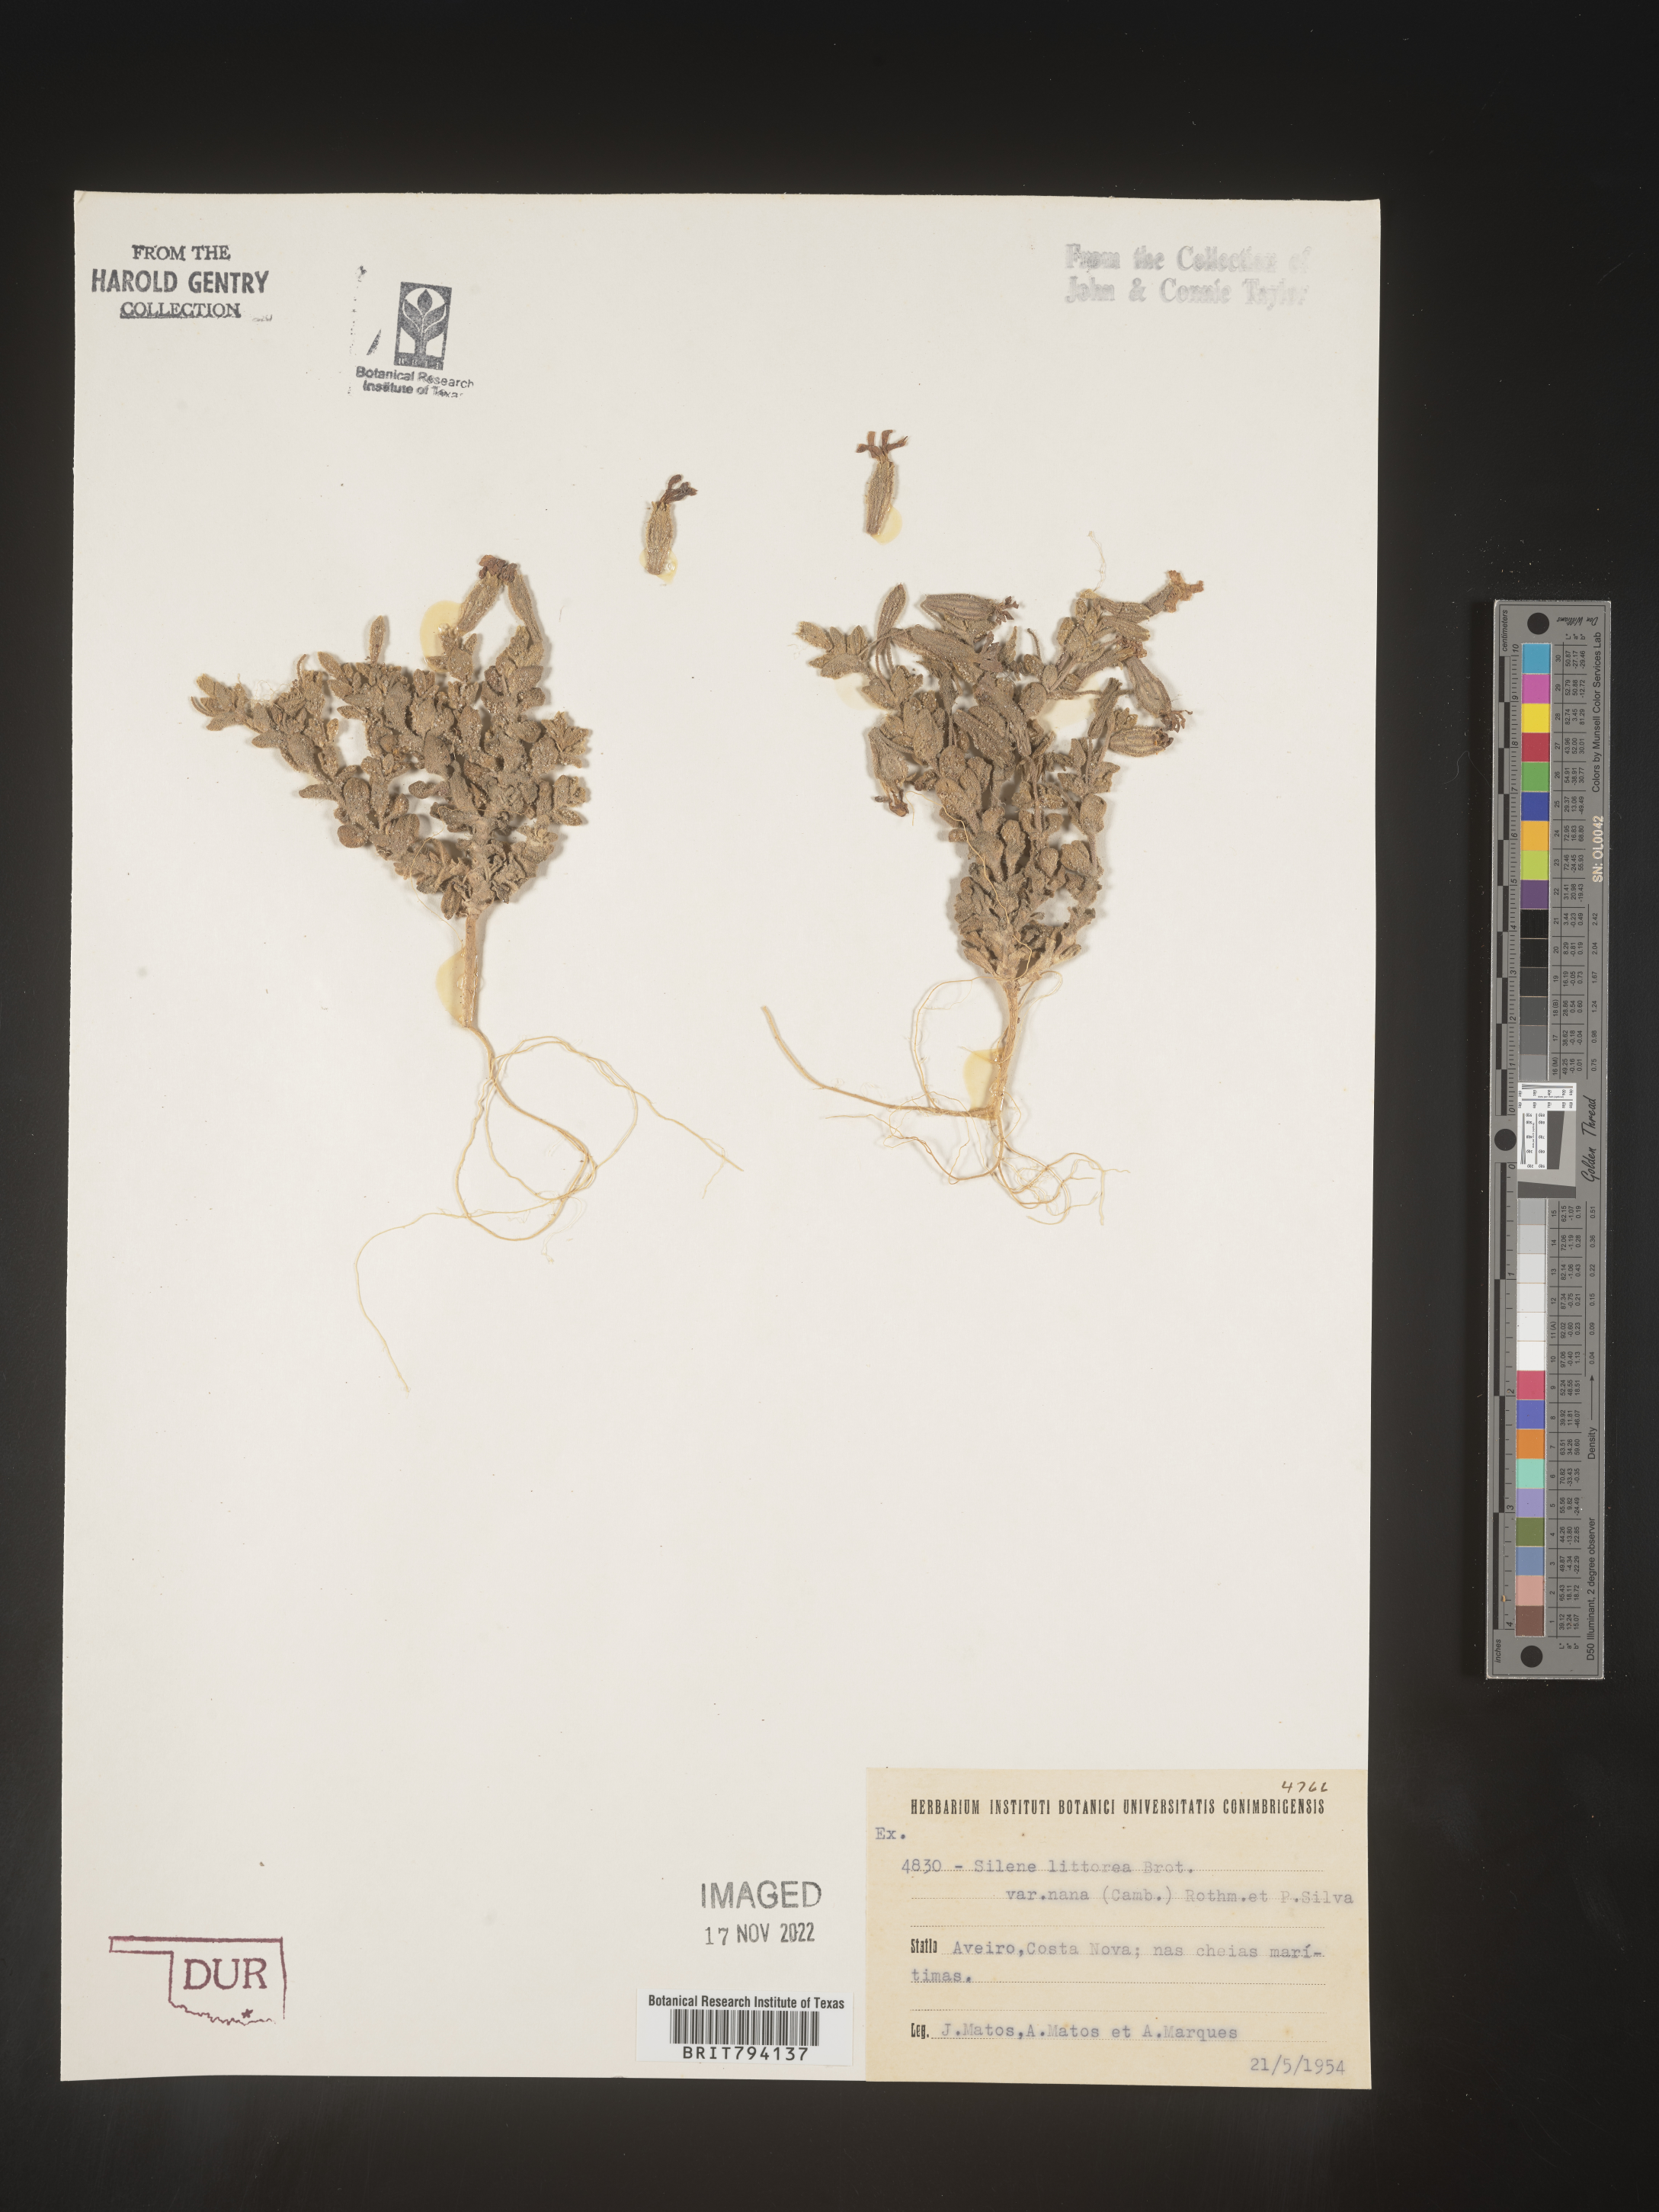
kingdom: Plantae
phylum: Tracheophyta
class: Magnoliopsida
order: Caryophyllales
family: Caryophyllaceae
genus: Silene
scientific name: Silene littorea
